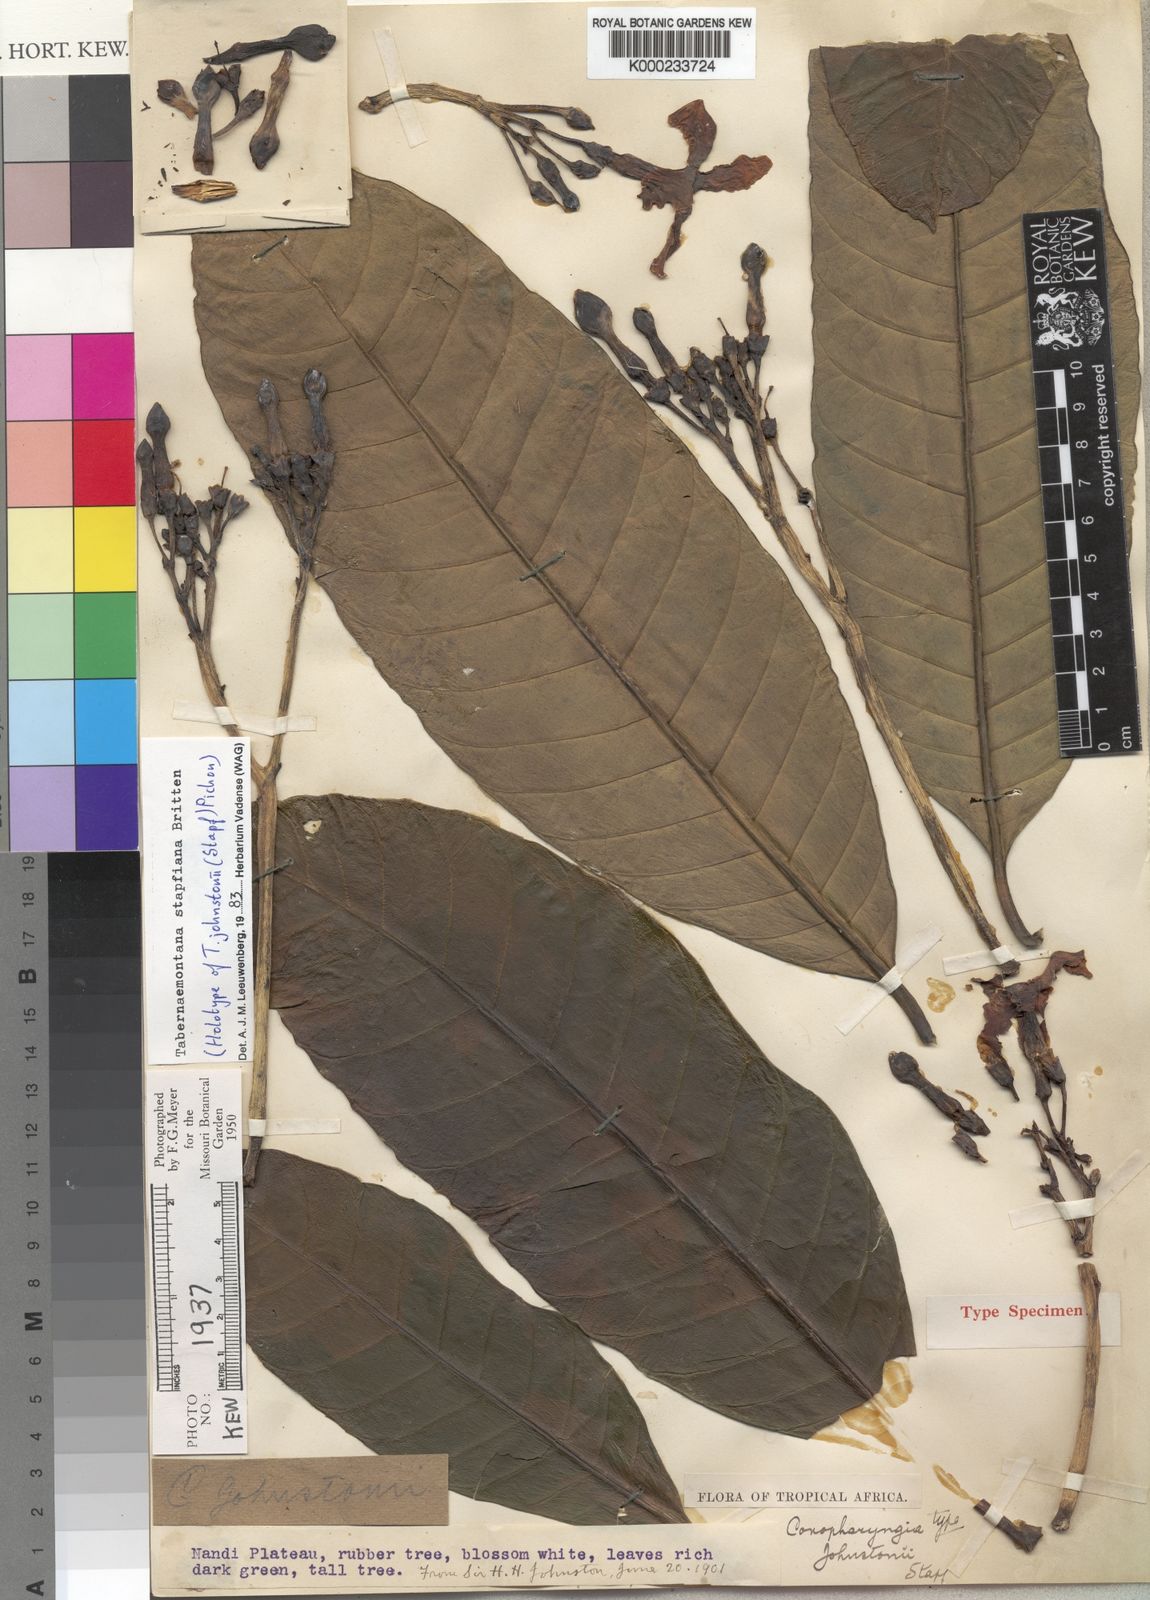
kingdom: Plantae
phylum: Tracheophyta
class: Magnoliopsida
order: Gentianales
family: Apocynaceae
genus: Tabernaemontana
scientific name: Tabernaemontana stapfiana
